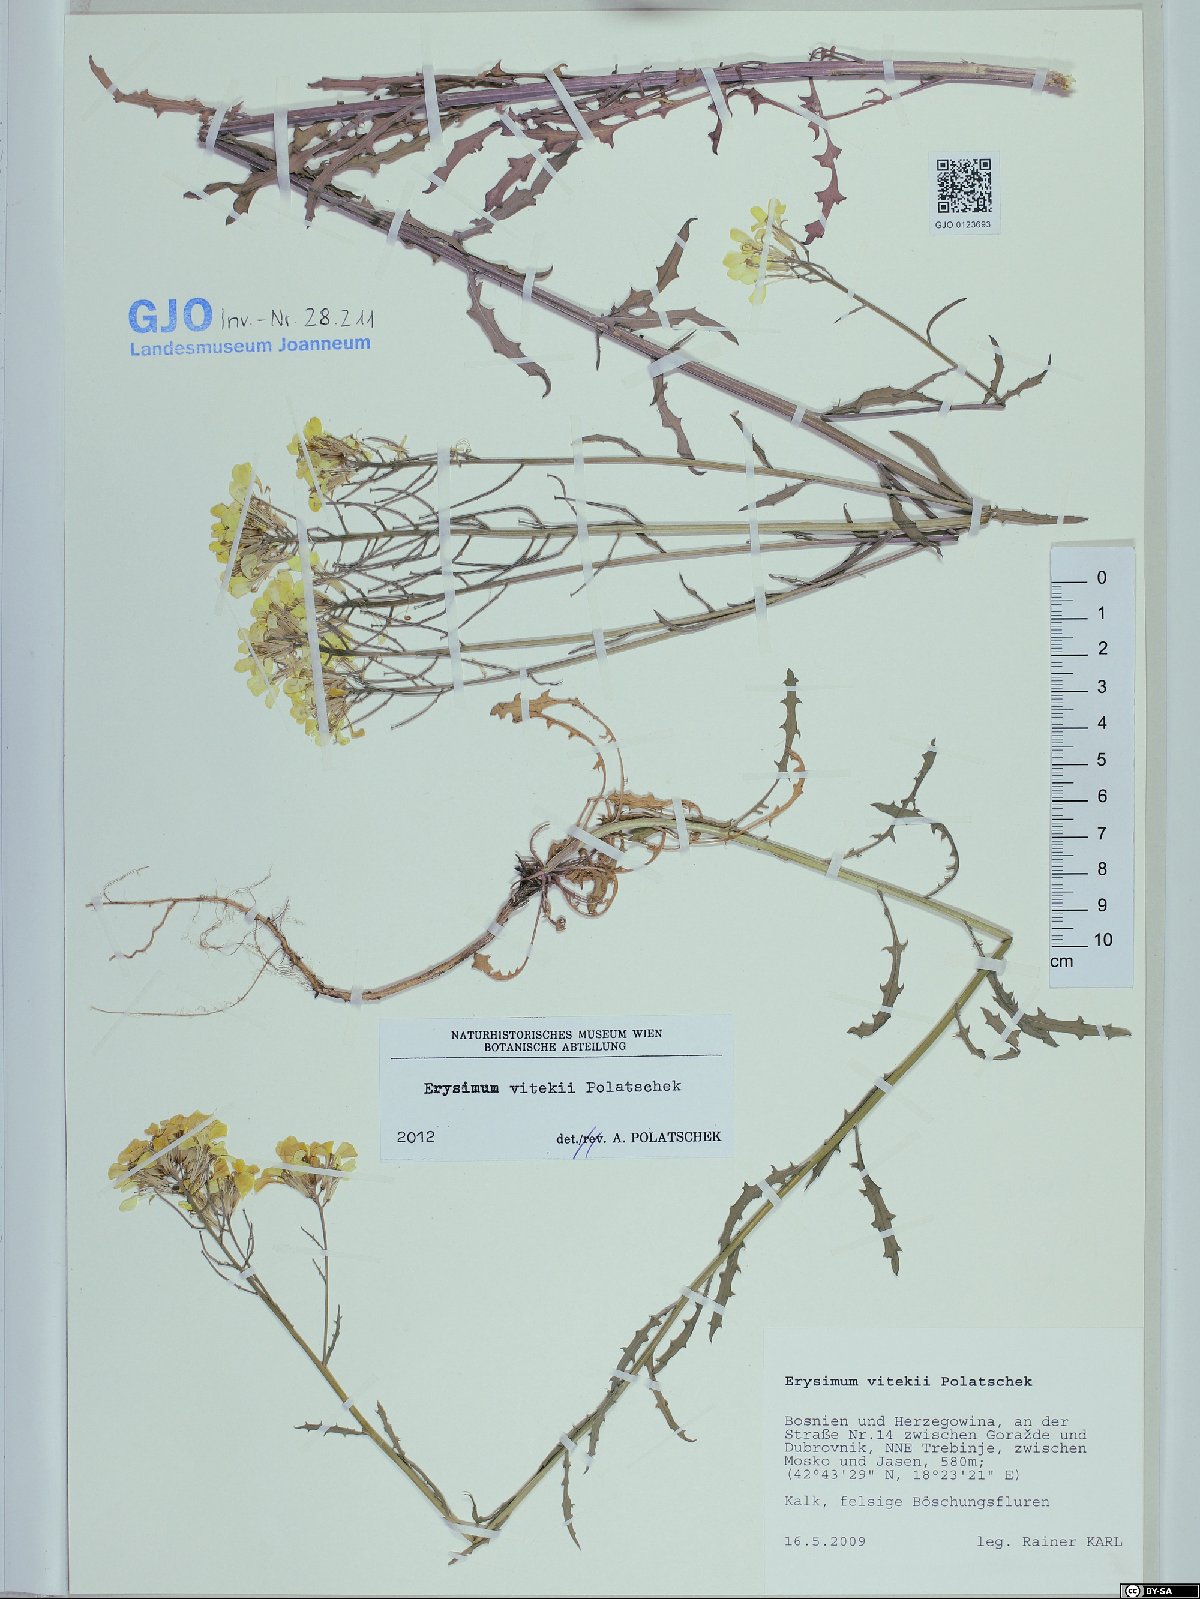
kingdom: Plantae
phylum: Tracheophyta
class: Magnoliopsida
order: Brassicales
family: Brassicaceae
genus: Erysimum
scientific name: Erysimum vitekii
